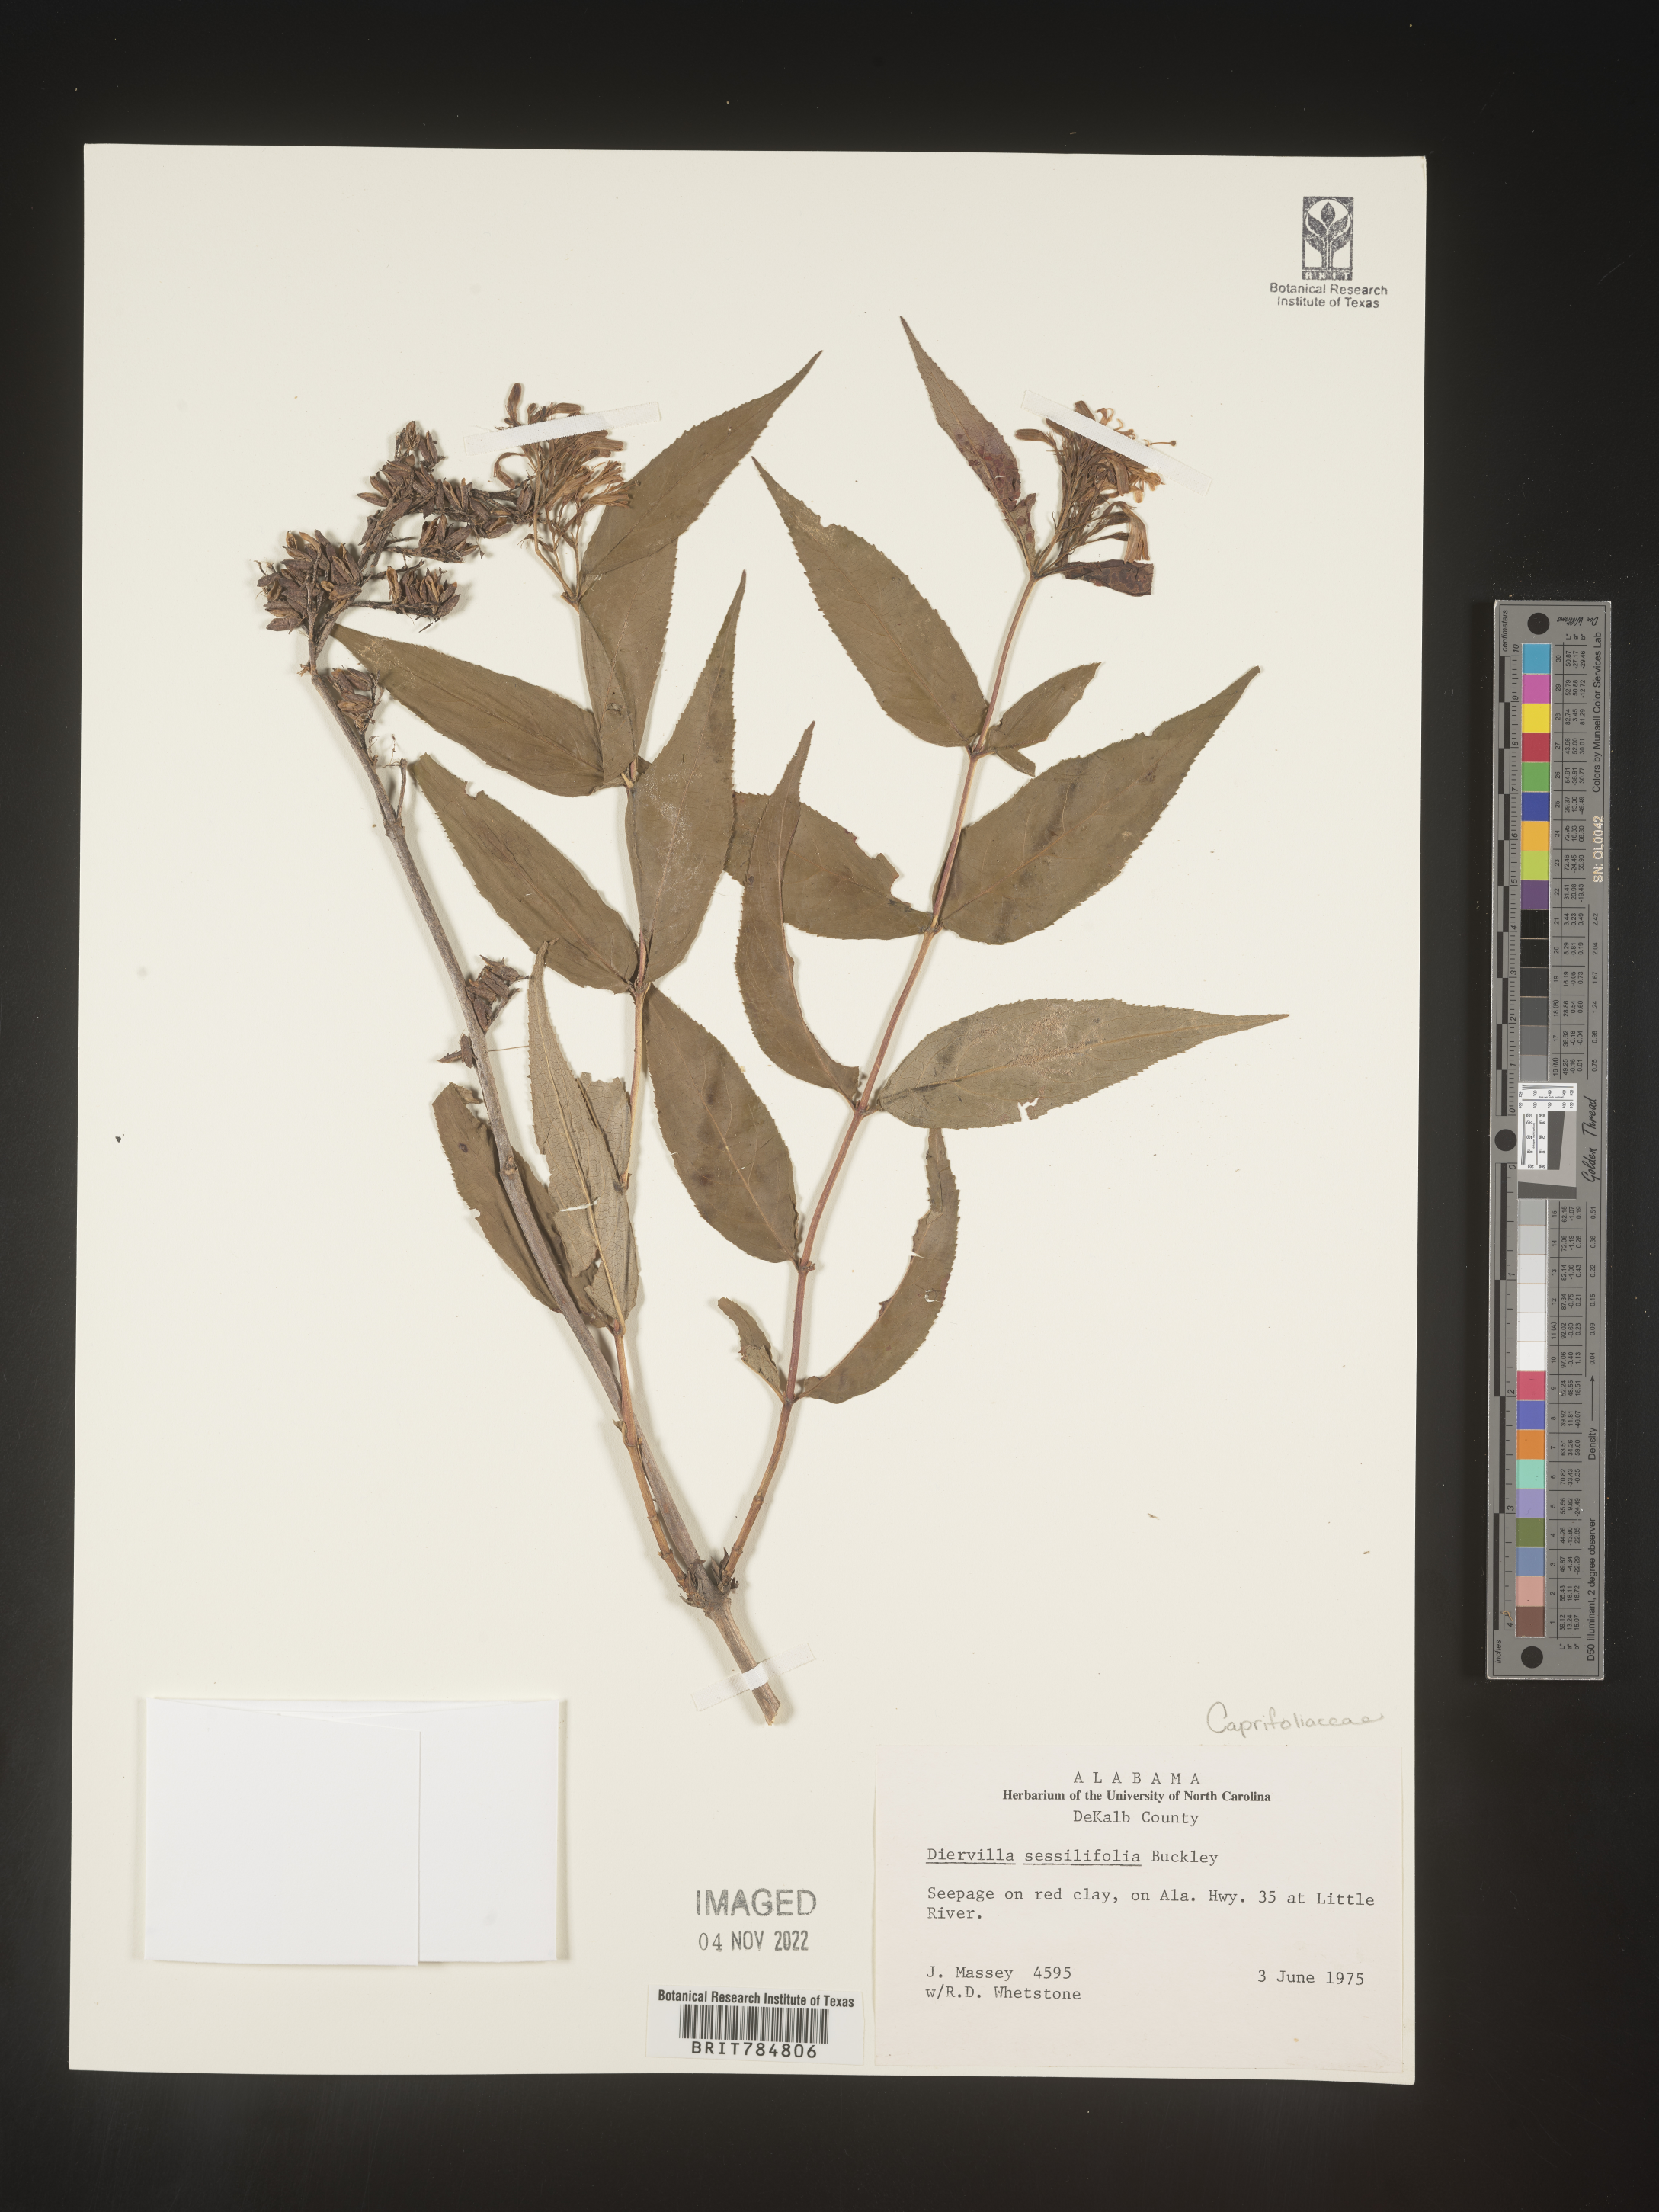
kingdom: Plantae
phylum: Tracheophyta
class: Magnoliopsida
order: Dipsacales
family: Caprifoliaceae
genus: Diervilla
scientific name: Diervilla
